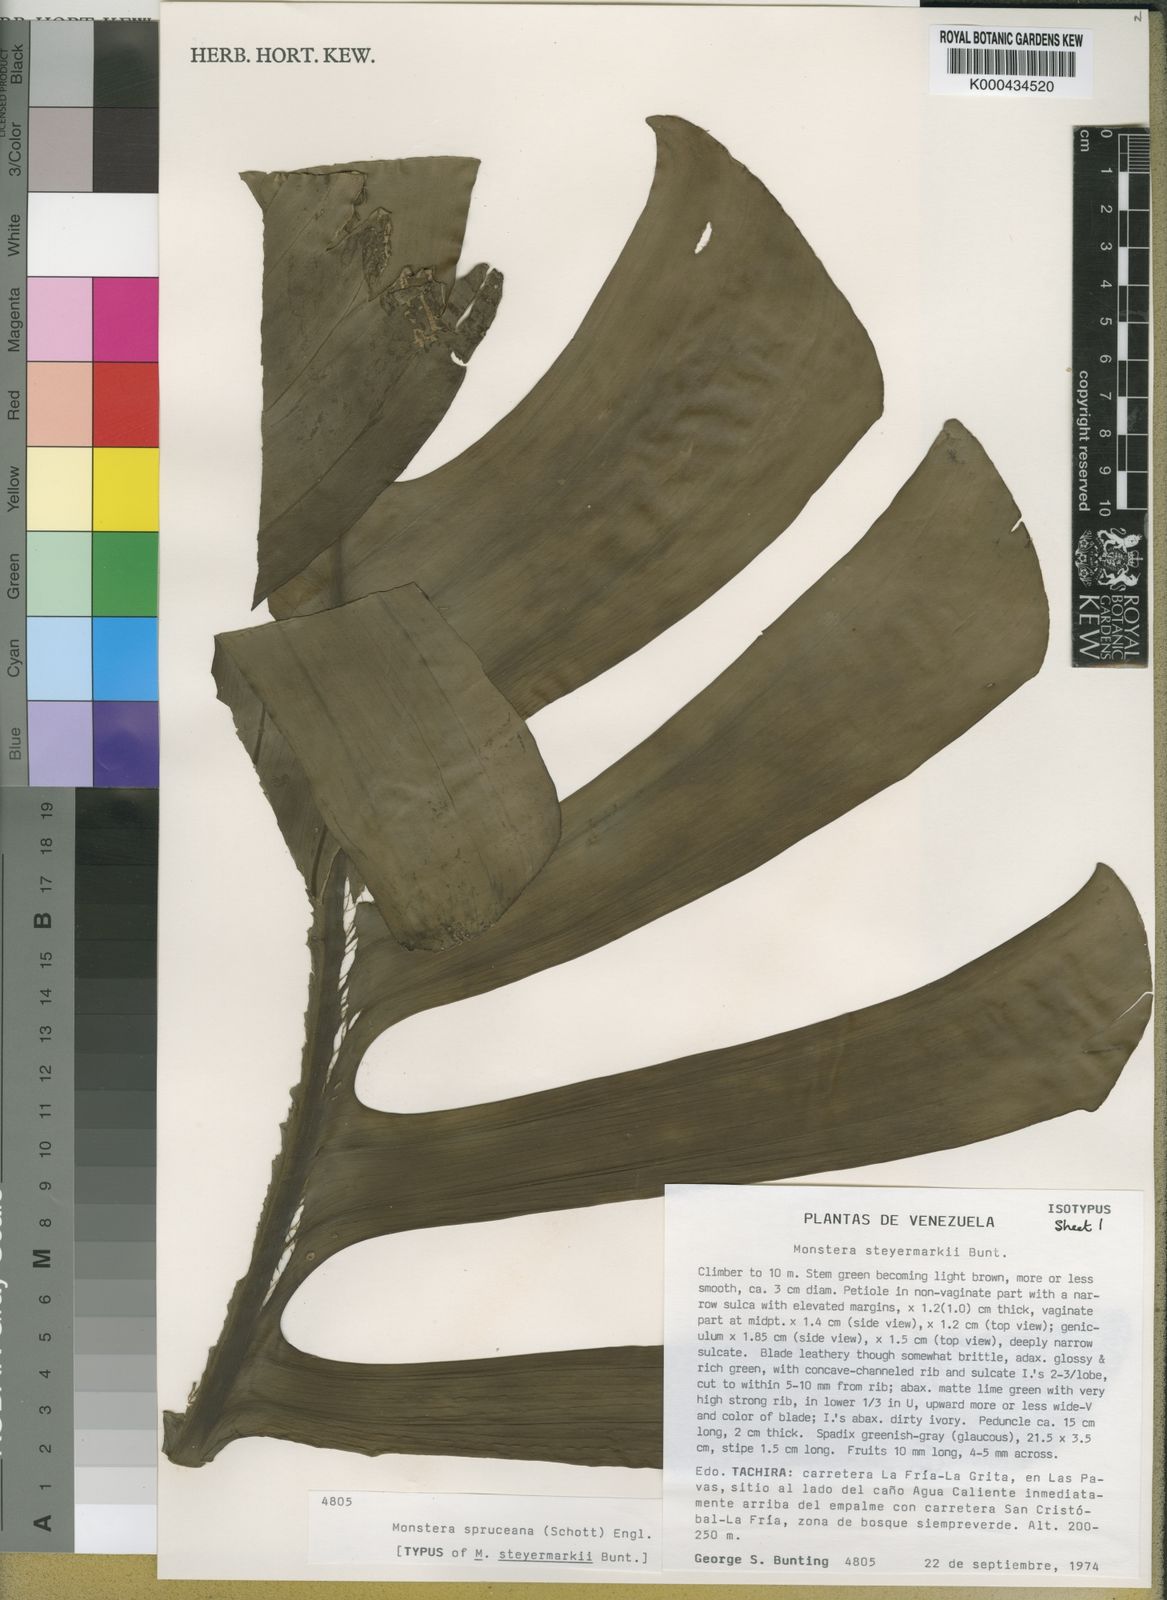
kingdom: Plantae
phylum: Tracheophyta
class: Liliopsida
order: Alismatales
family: Araceae
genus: Monstera
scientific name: Monstera spruceana
